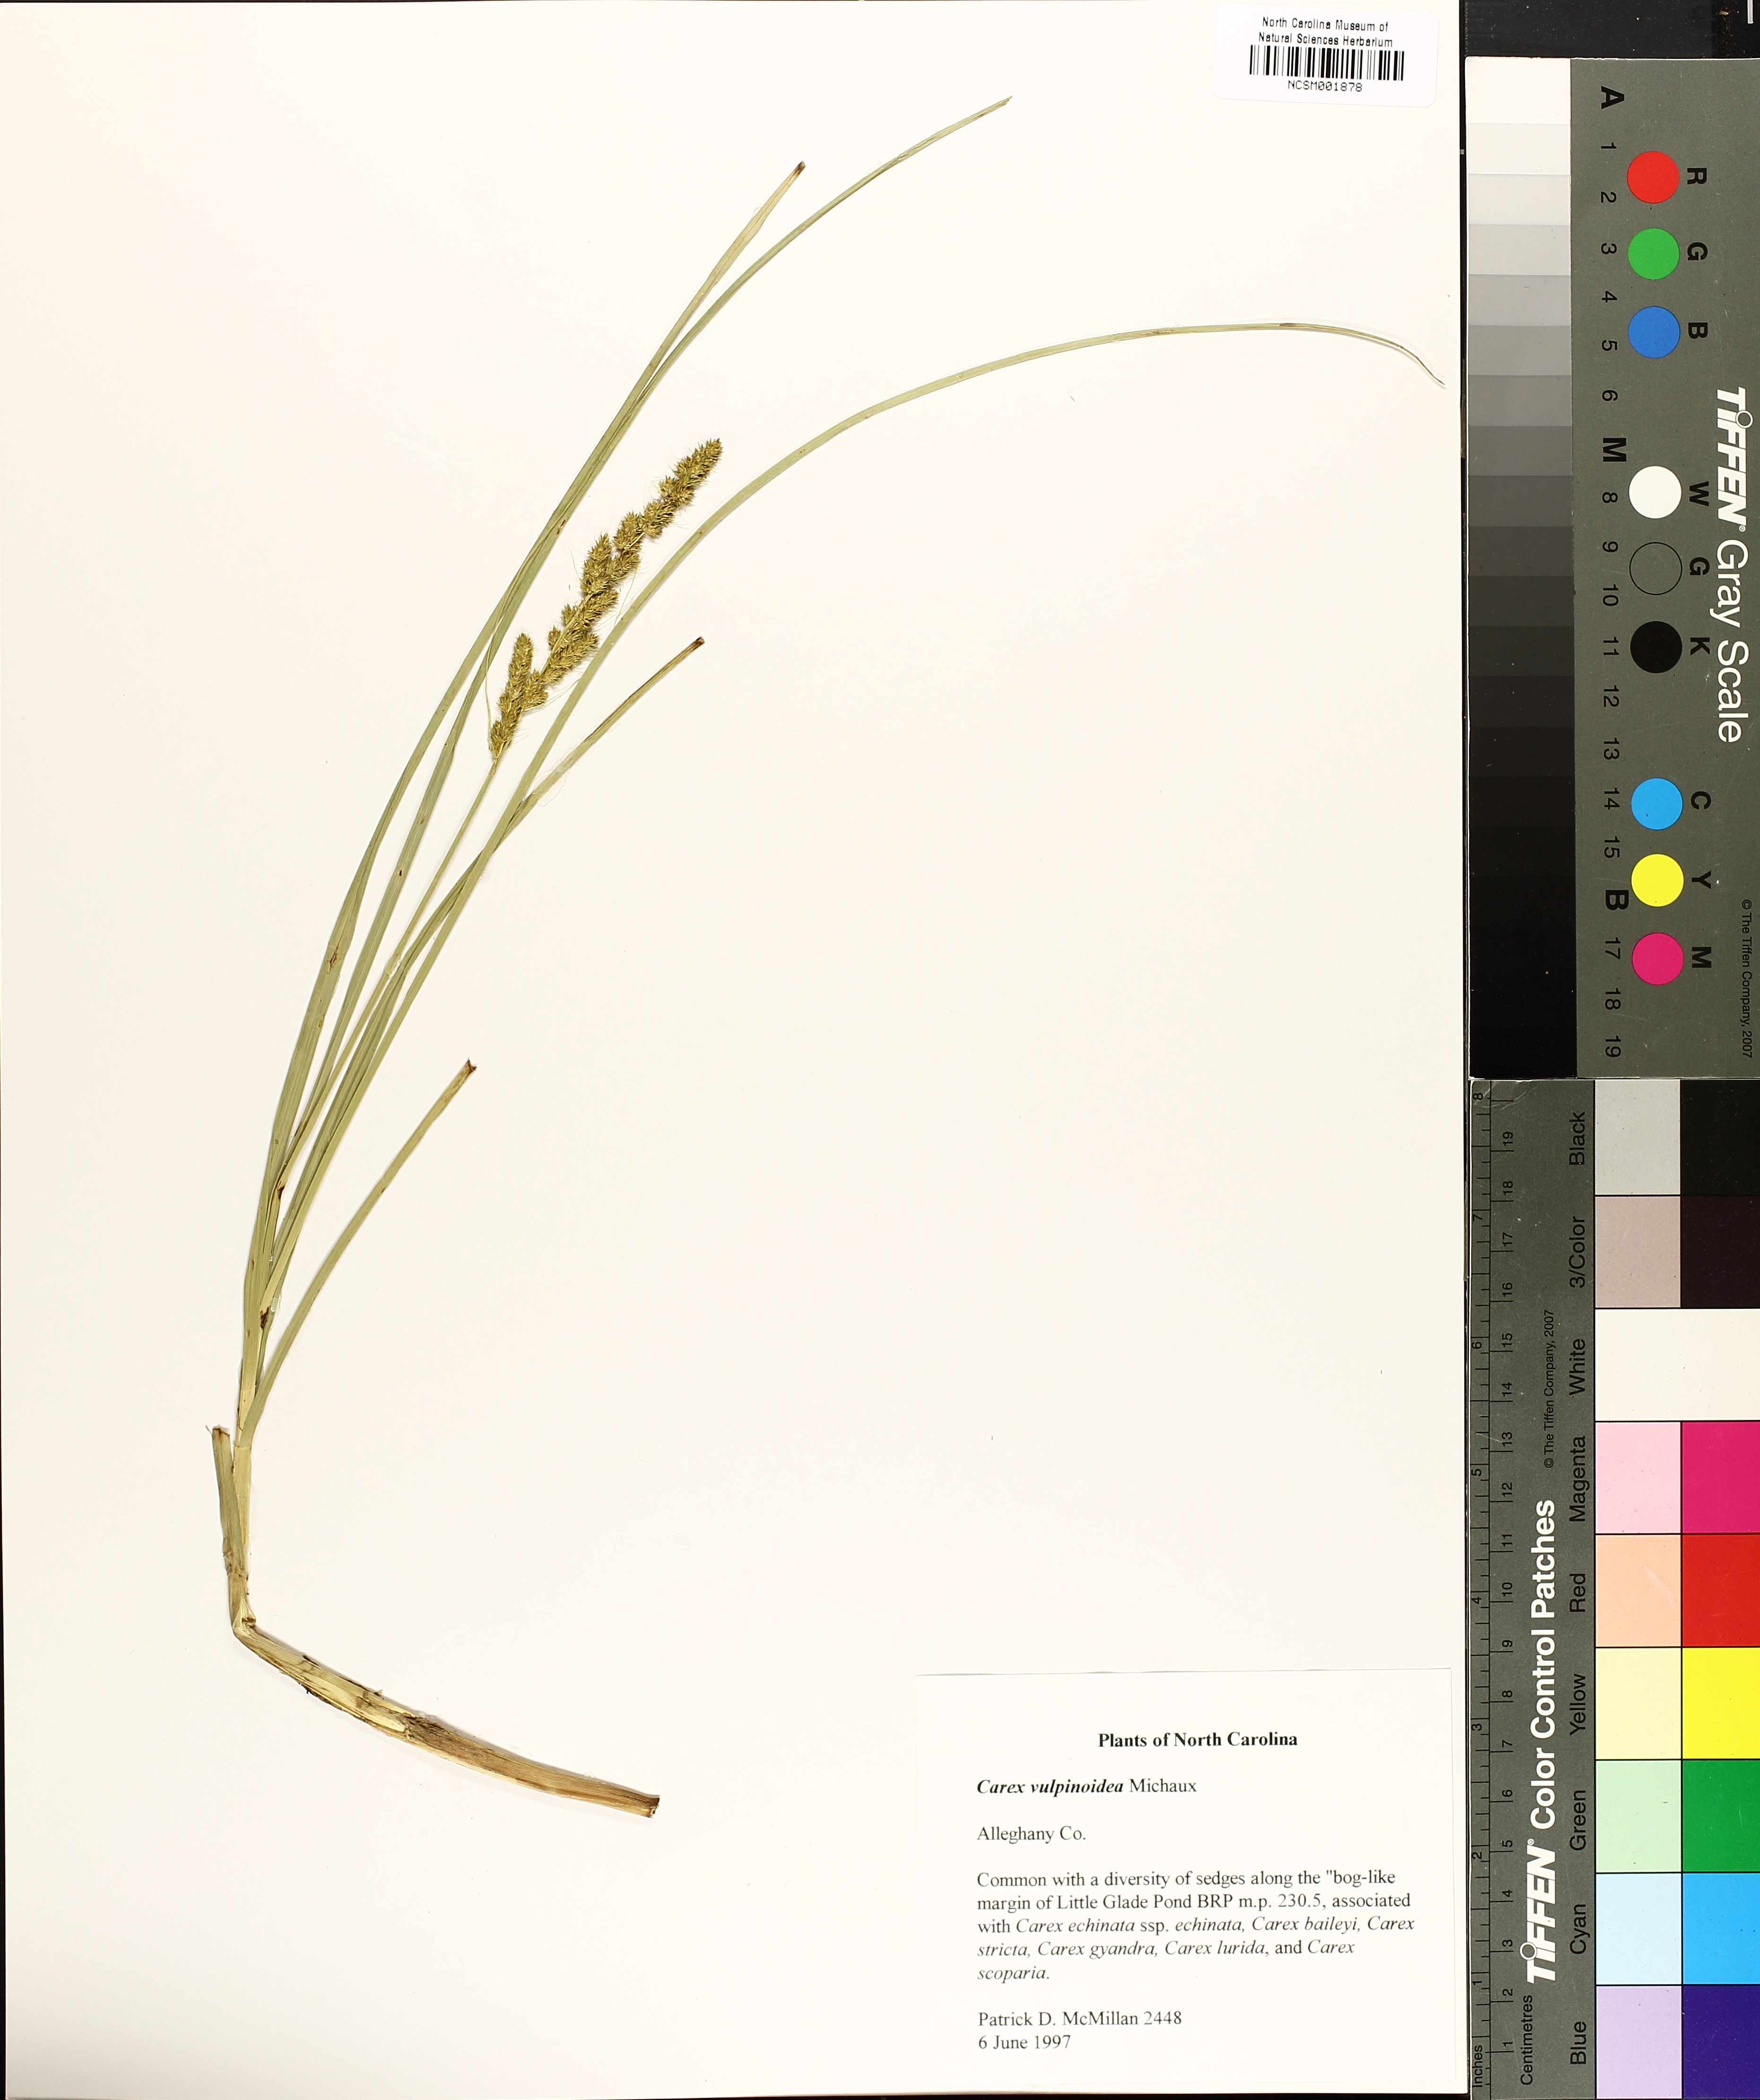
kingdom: Plantae
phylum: Tracheophyta
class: Liliopsida
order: Poales
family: Cyperaceae
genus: Carex
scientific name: Carex vulpinoidea
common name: American fox-sedge
